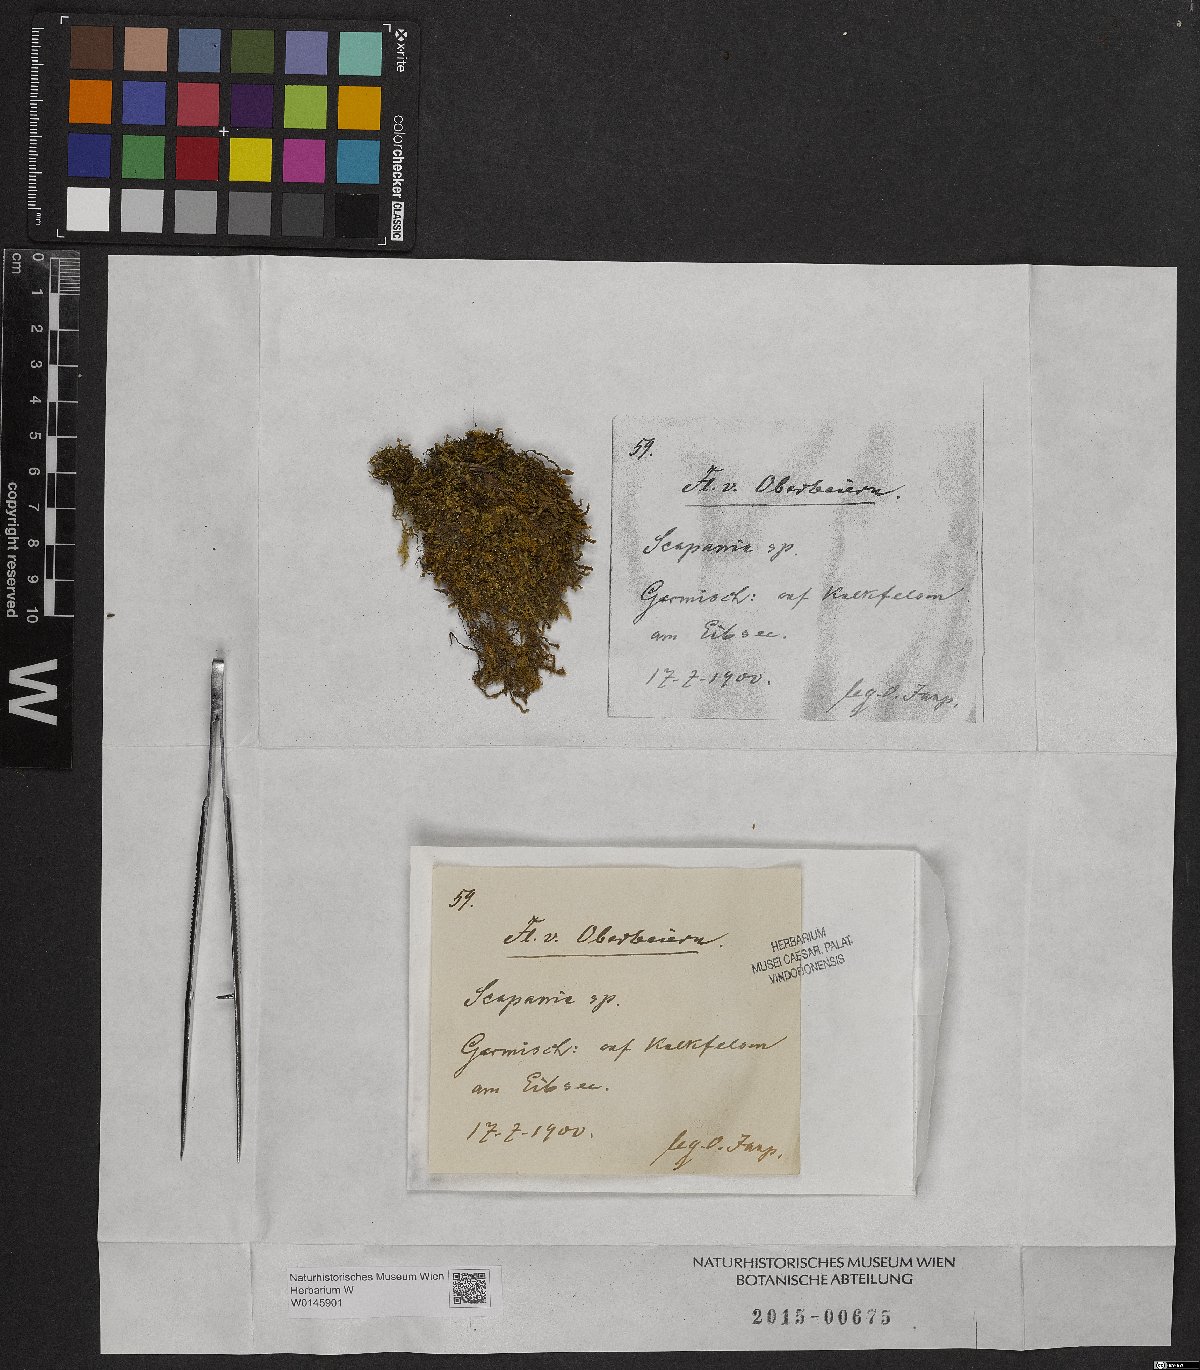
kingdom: Plantae
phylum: Marchantiophyta
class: Jungermanniopsida
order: Jungermanniales
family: Scapaniaceae
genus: Scapania
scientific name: Scapania
